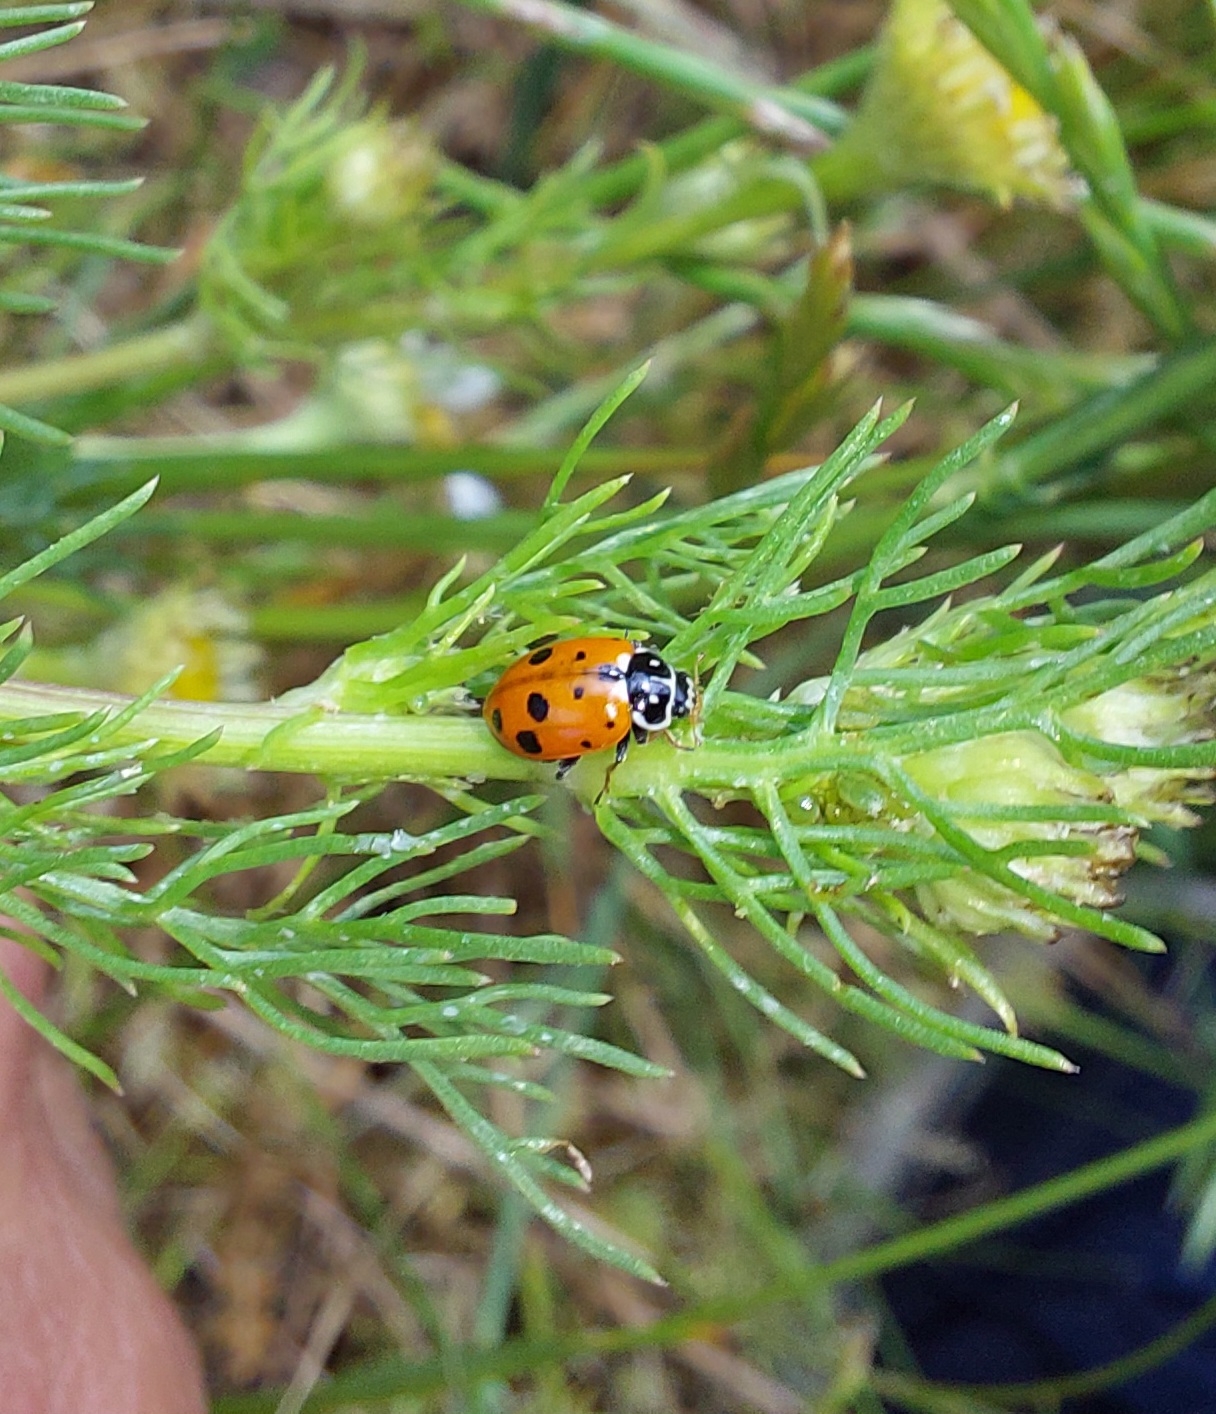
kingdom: Animalia
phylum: Arthropoda
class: Insecta
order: Coleoptera
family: Coccinellidae
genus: Hippodamia
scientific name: Hippodamia variegata
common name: Adonis' mariehøne
